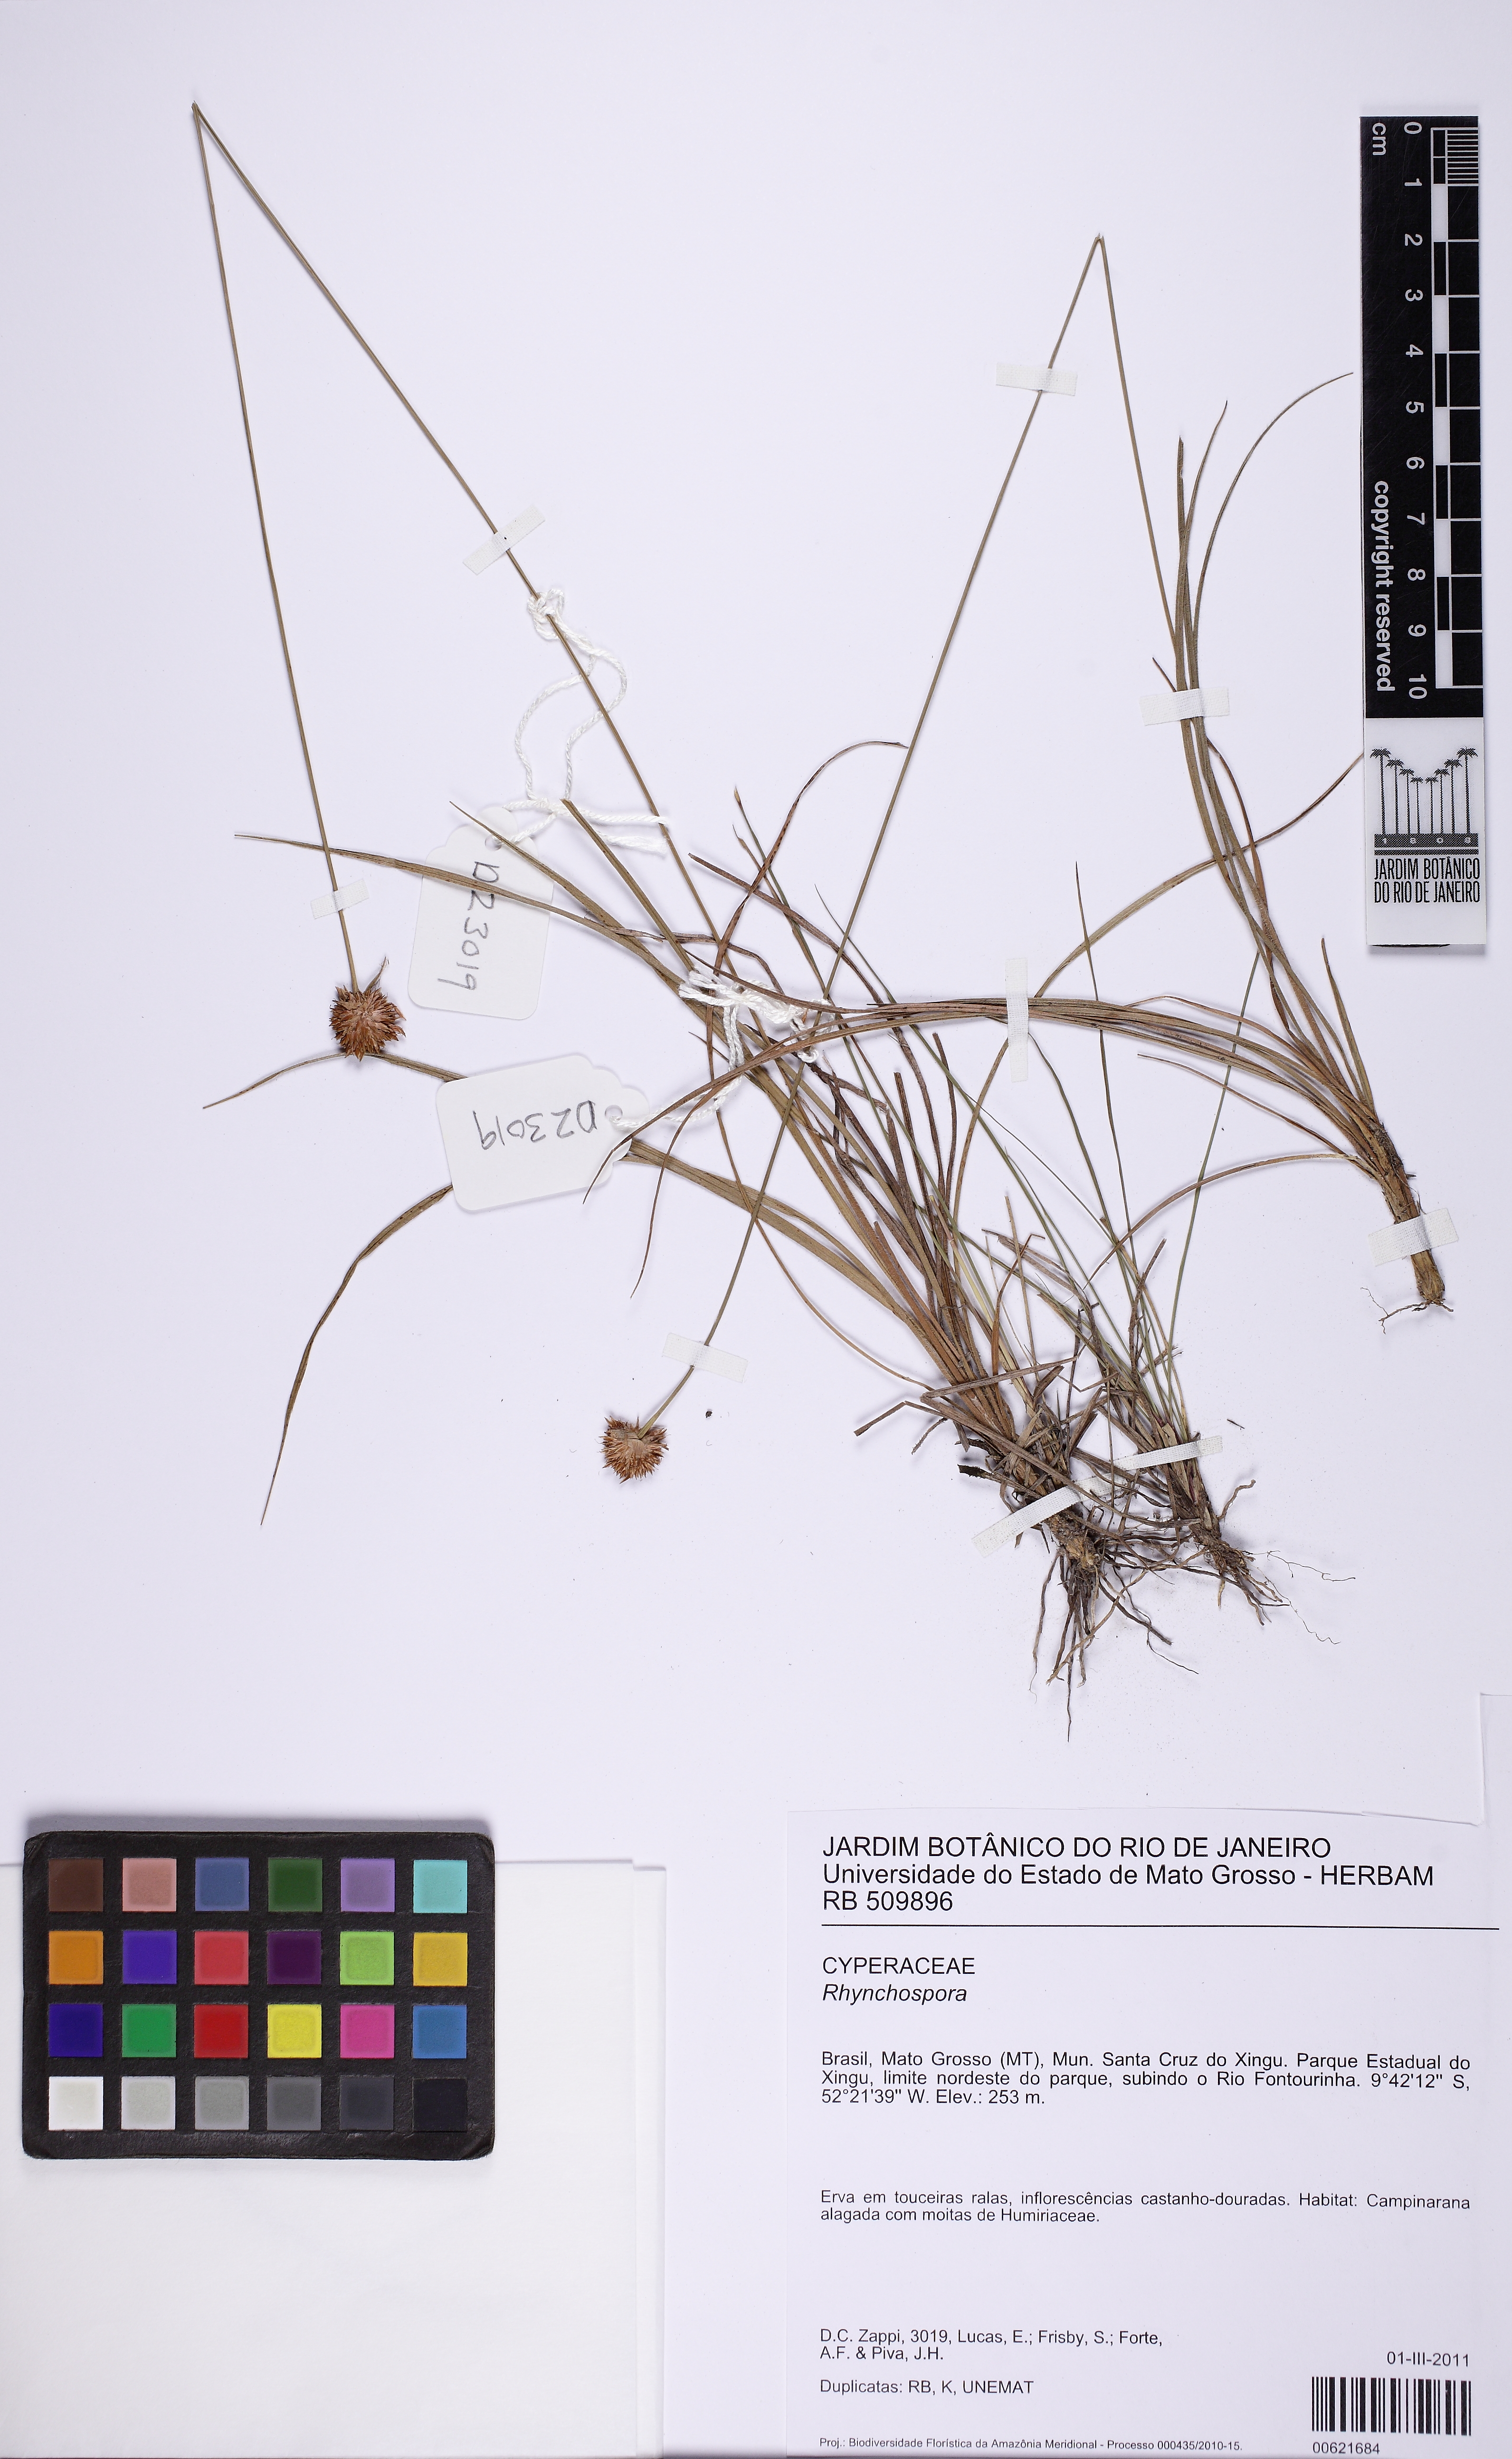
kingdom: Plantae
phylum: Tracheophyta
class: Liliopsida
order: Poales
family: Cyperaceae
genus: Rhynchospora
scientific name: Rhynchospora
